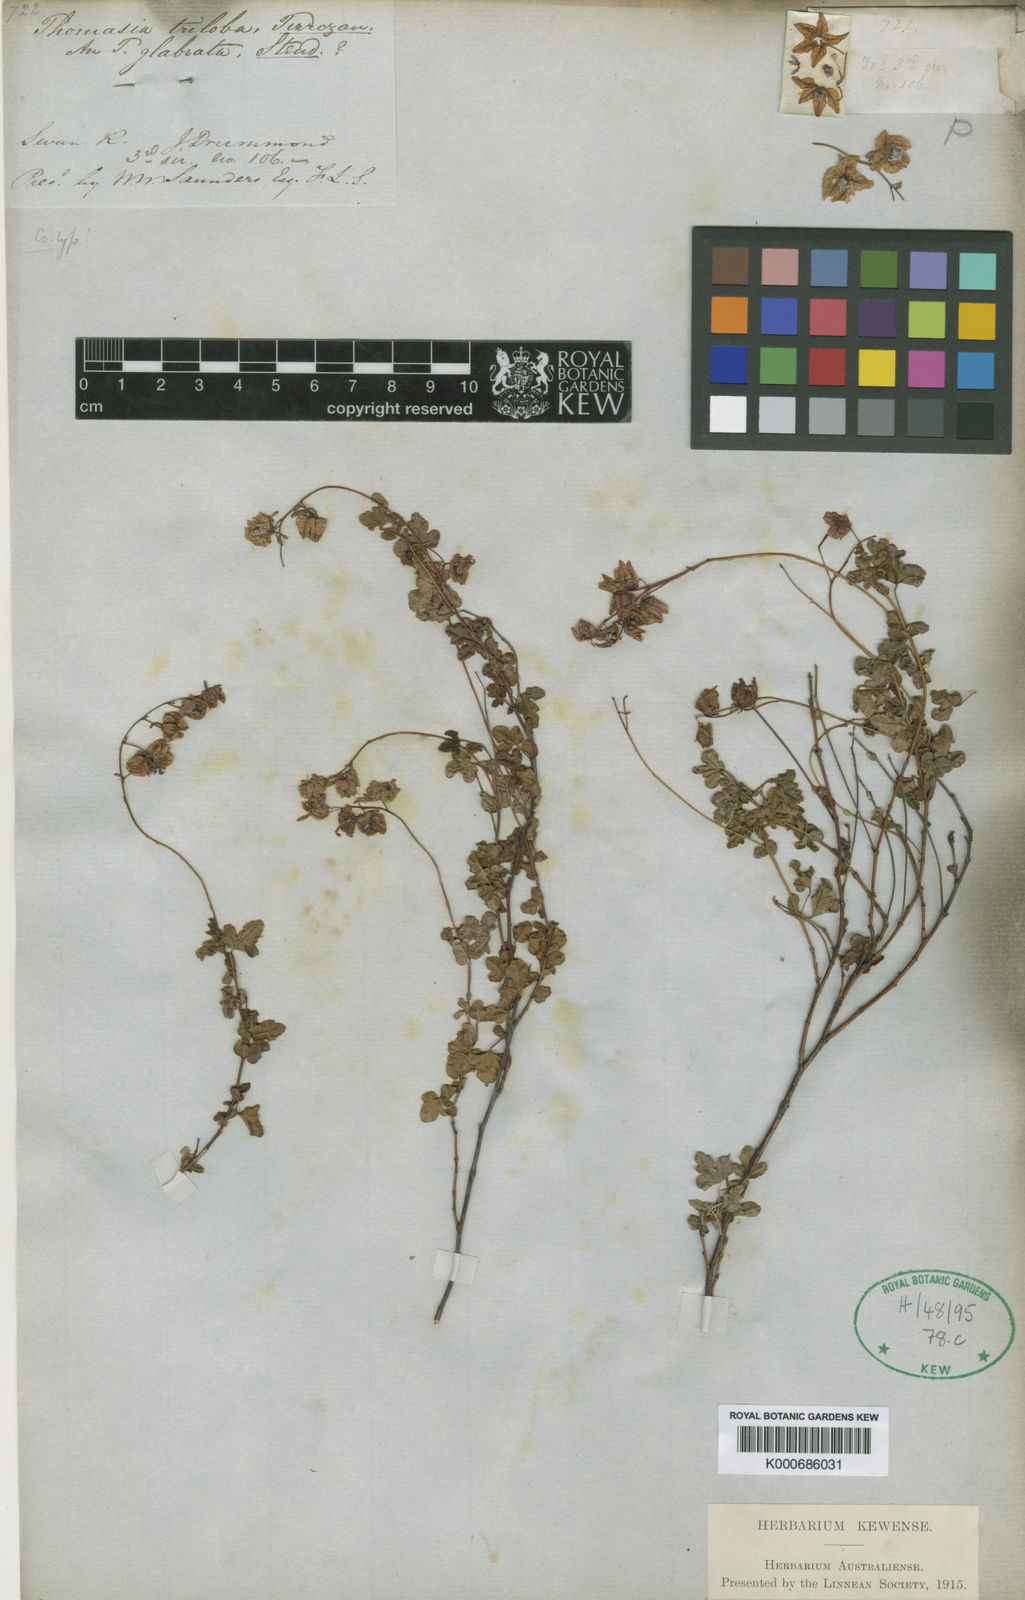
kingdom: Plantae
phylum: Tracheophyta
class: Magnoliopsida
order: Malvales
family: Malvaceae
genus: Thomasia
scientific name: Thomasia triloba
